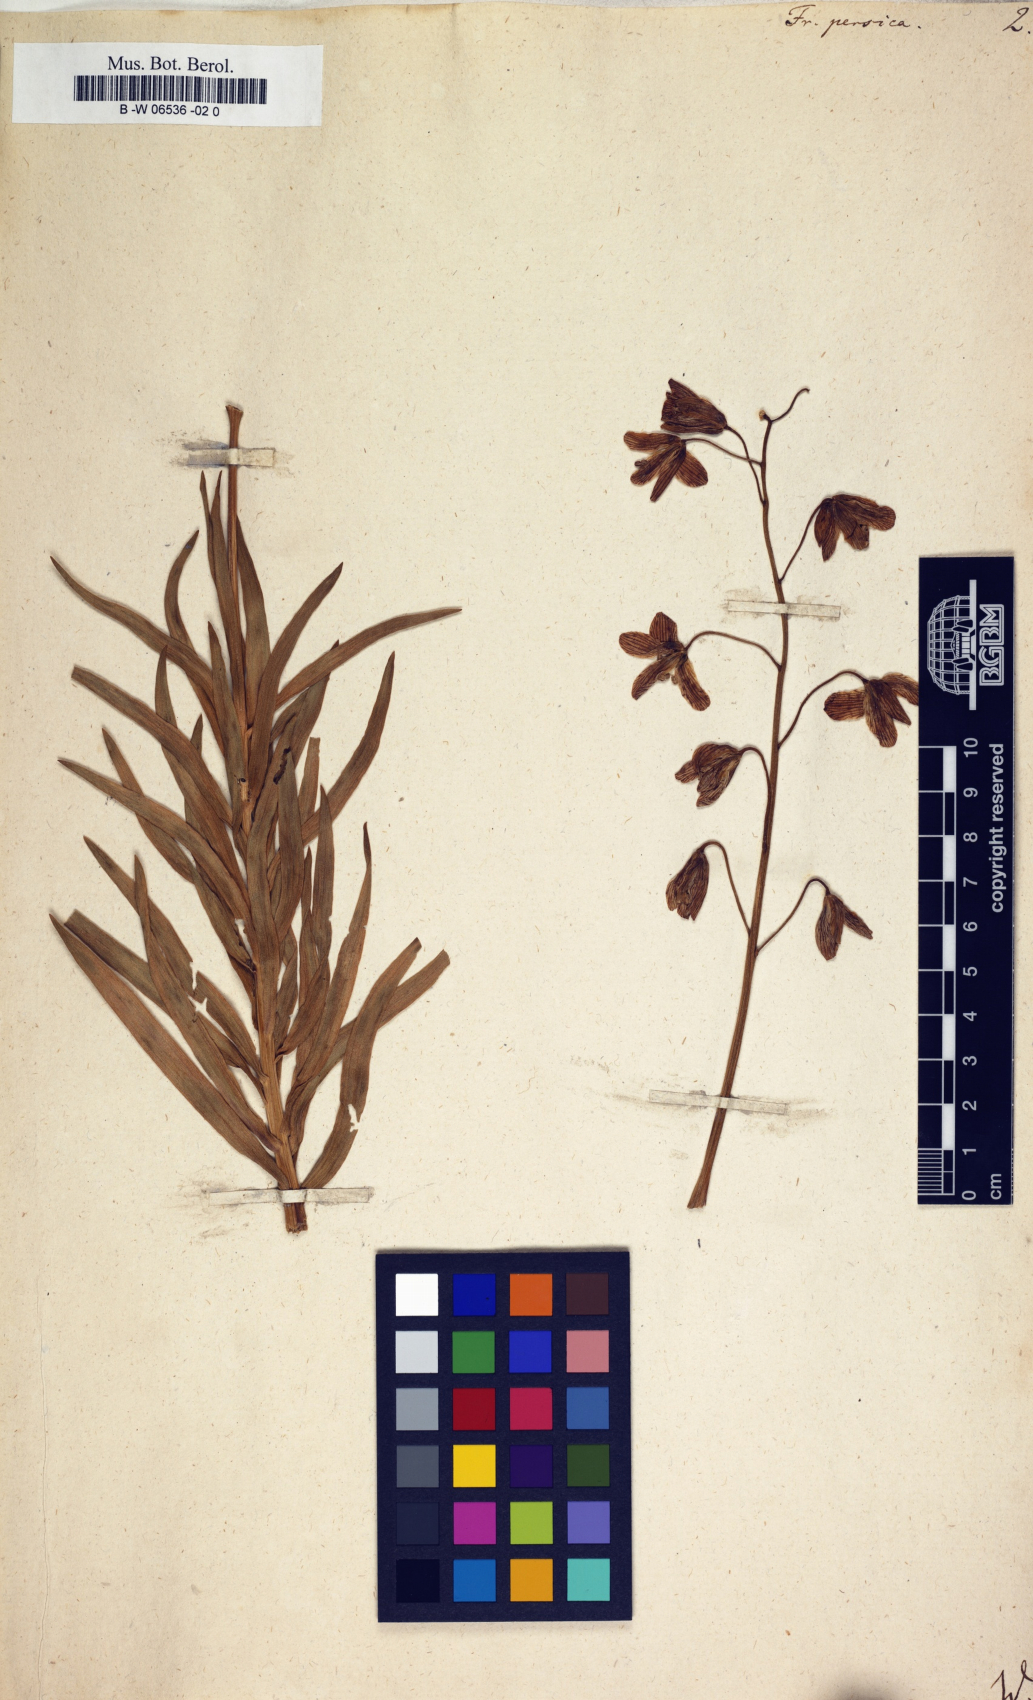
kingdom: Plantae
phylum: Tracheophyta
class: Liliopsida
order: Liliales
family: Liliaceae
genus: Fritillaria
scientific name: Fritillaria persica
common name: Persian fritillary
